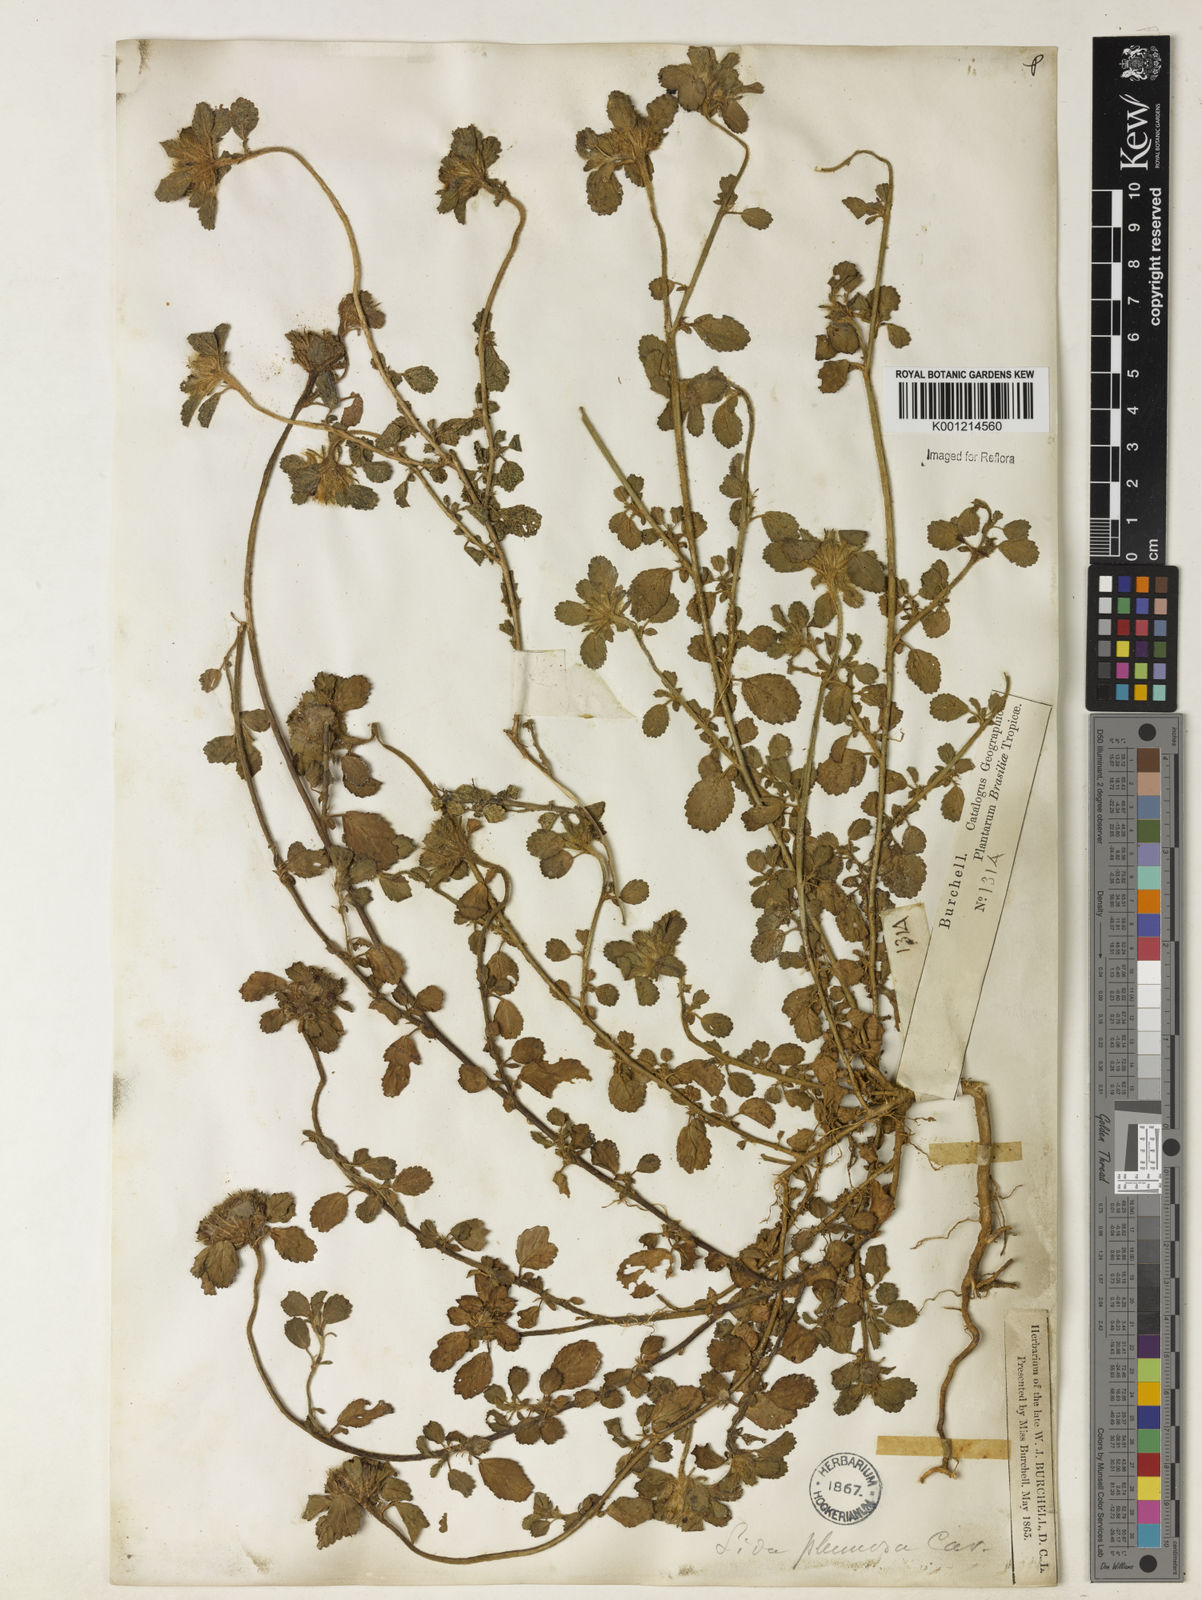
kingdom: Plantae
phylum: Tracheophyta
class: Magnoliopsida
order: Malvales
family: Malvaceae
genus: Sida
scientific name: Sida ciliaris
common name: Bracted fanpetals
